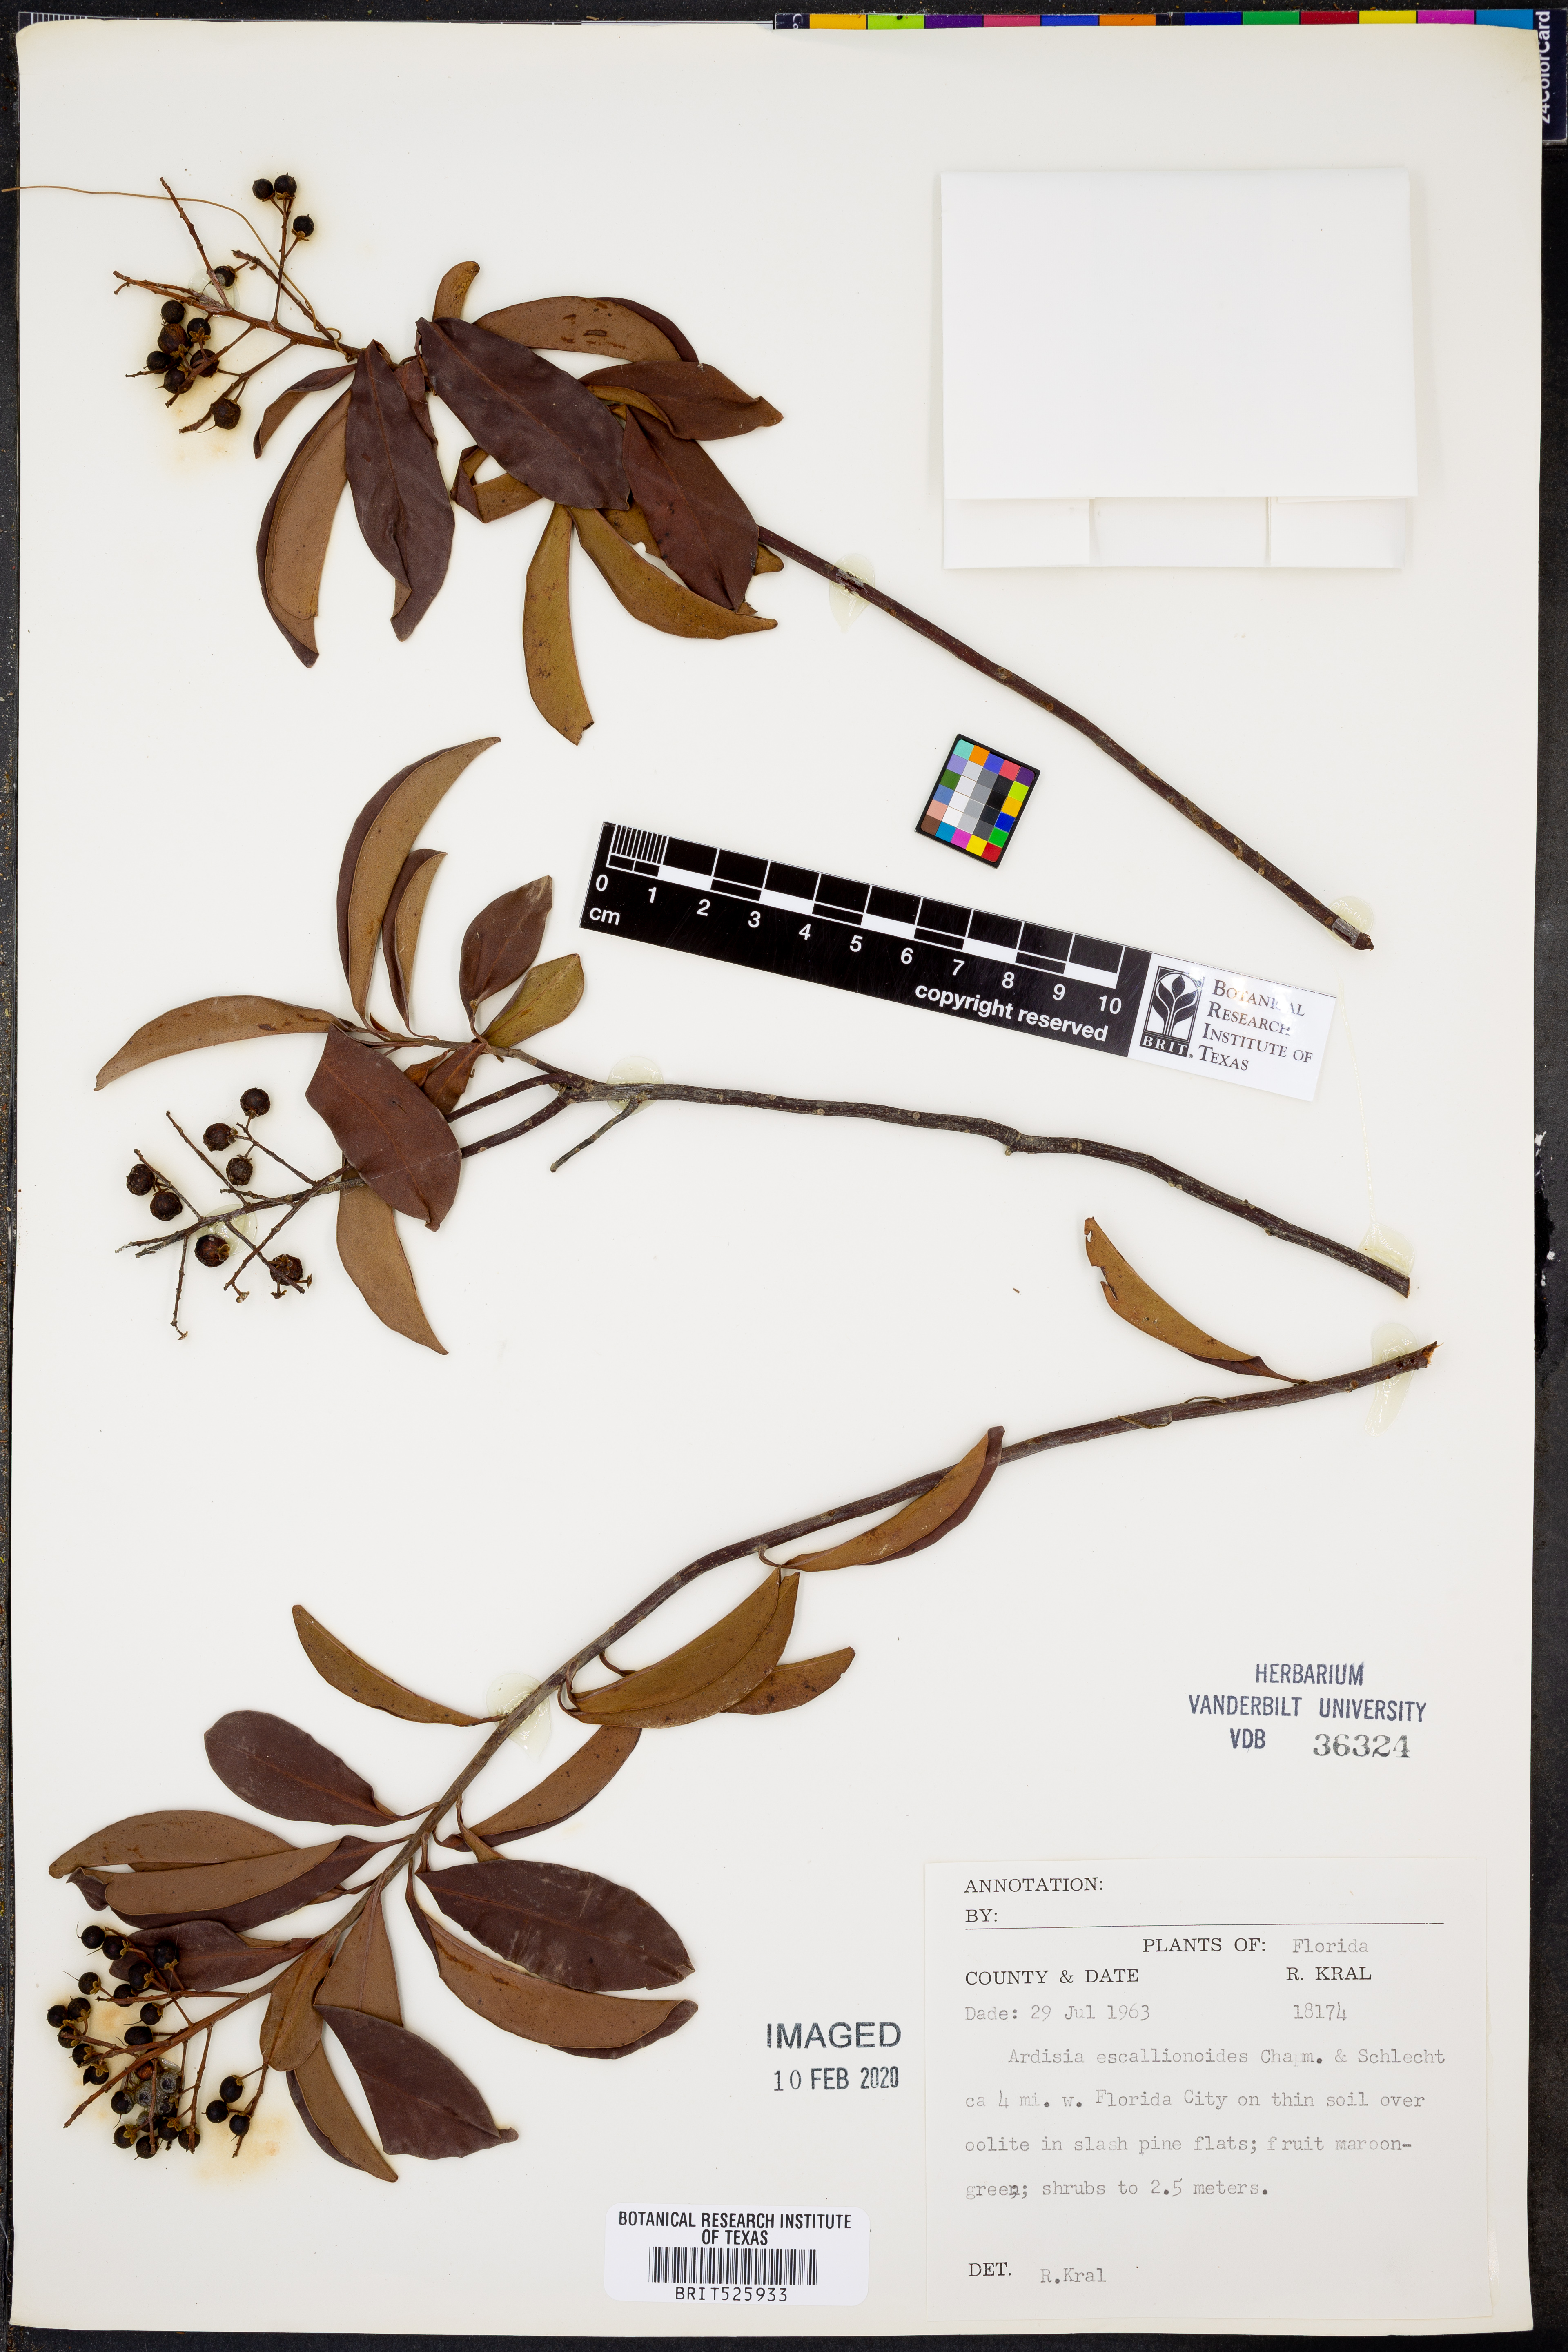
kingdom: Plantae
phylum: Tracheophyta
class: Magnoliopsida
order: Ericales
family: Primulaceae
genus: Ardisia
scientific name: Ardisia escallonioides
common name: Island marlberry
